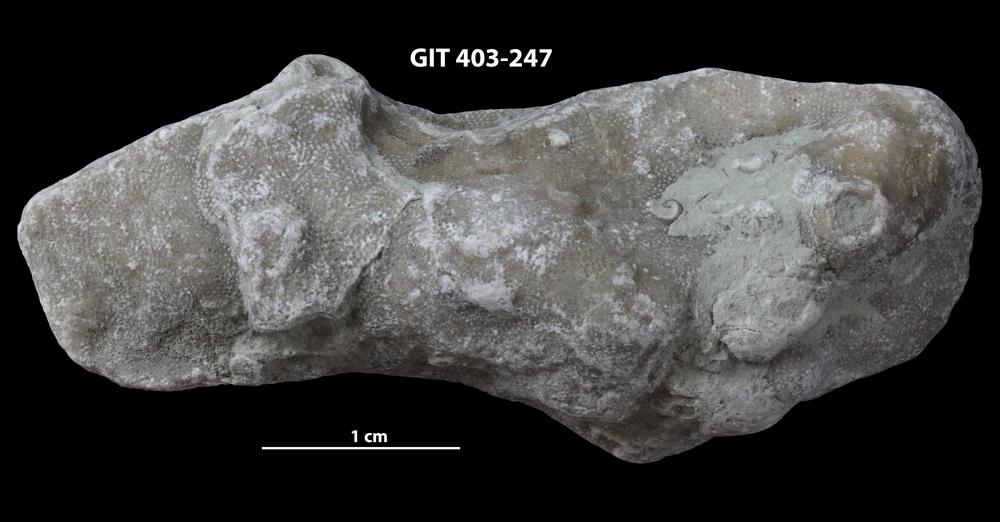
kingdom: Animalia
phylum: Bryozoa
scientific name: Bryozoa
